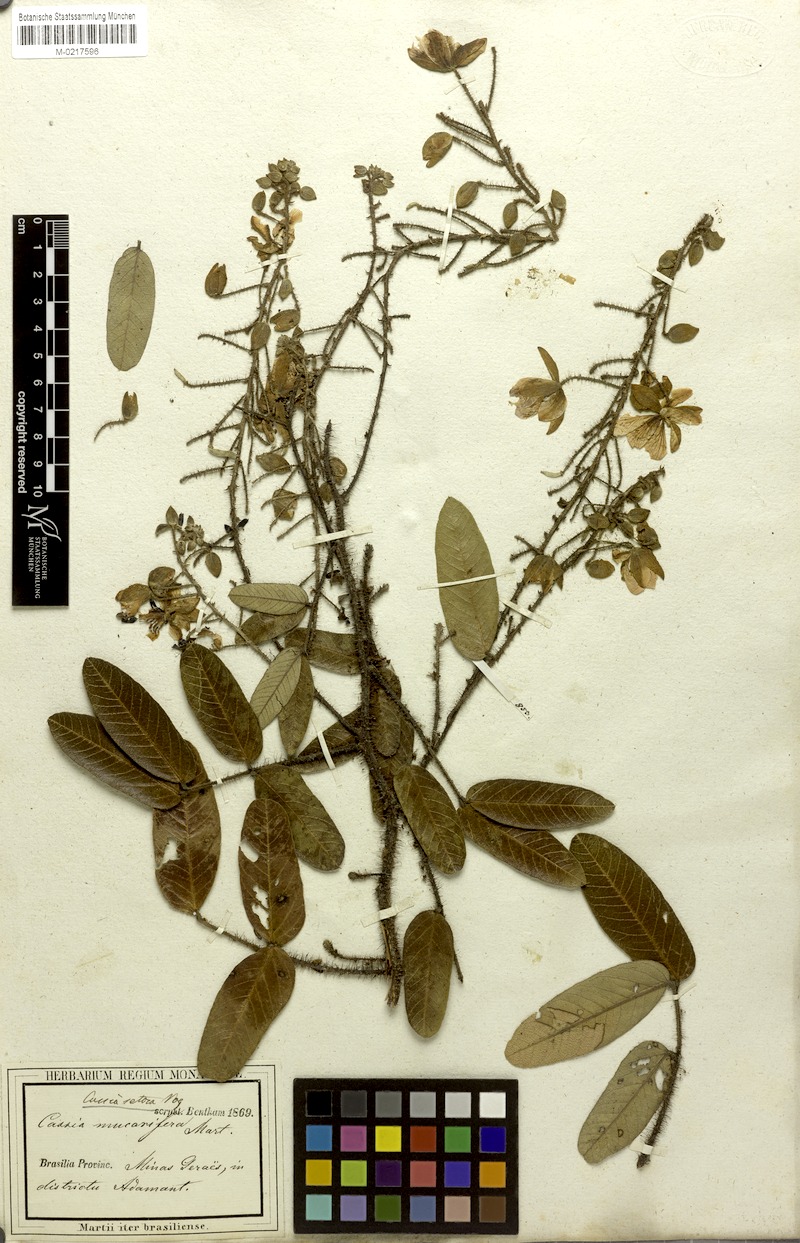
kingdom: Plantae
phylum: Tracheophyta
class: Magnoliopsida
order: Fabales
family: Fabaceae
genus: Chamaecrista
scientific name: Chamaecrista setosa
